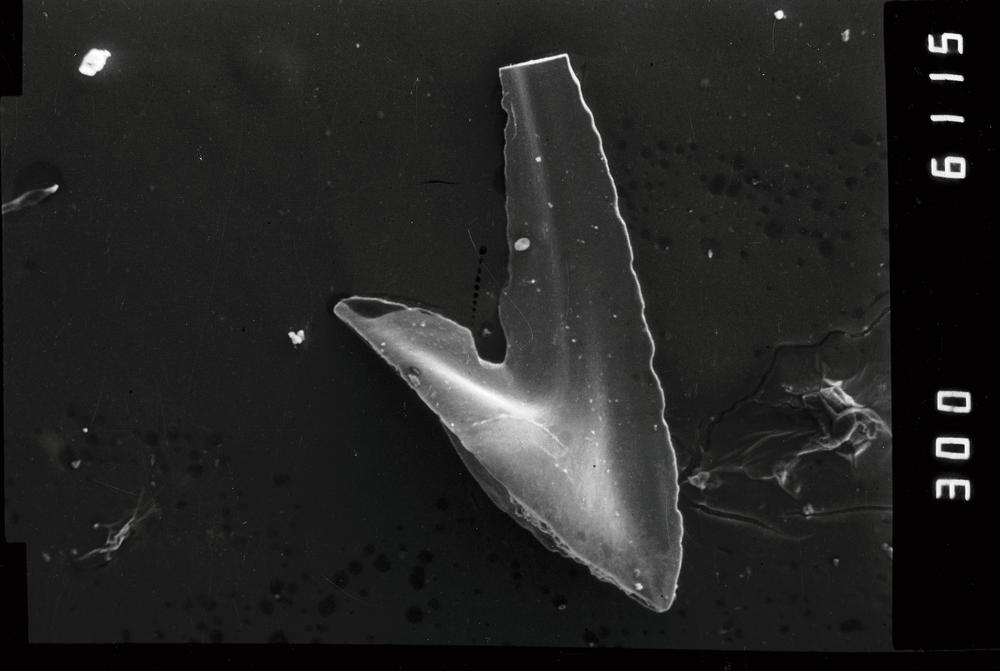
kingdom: Animalia
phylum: Annelida
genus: Paltodus
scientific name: Paltodus subaequalis
